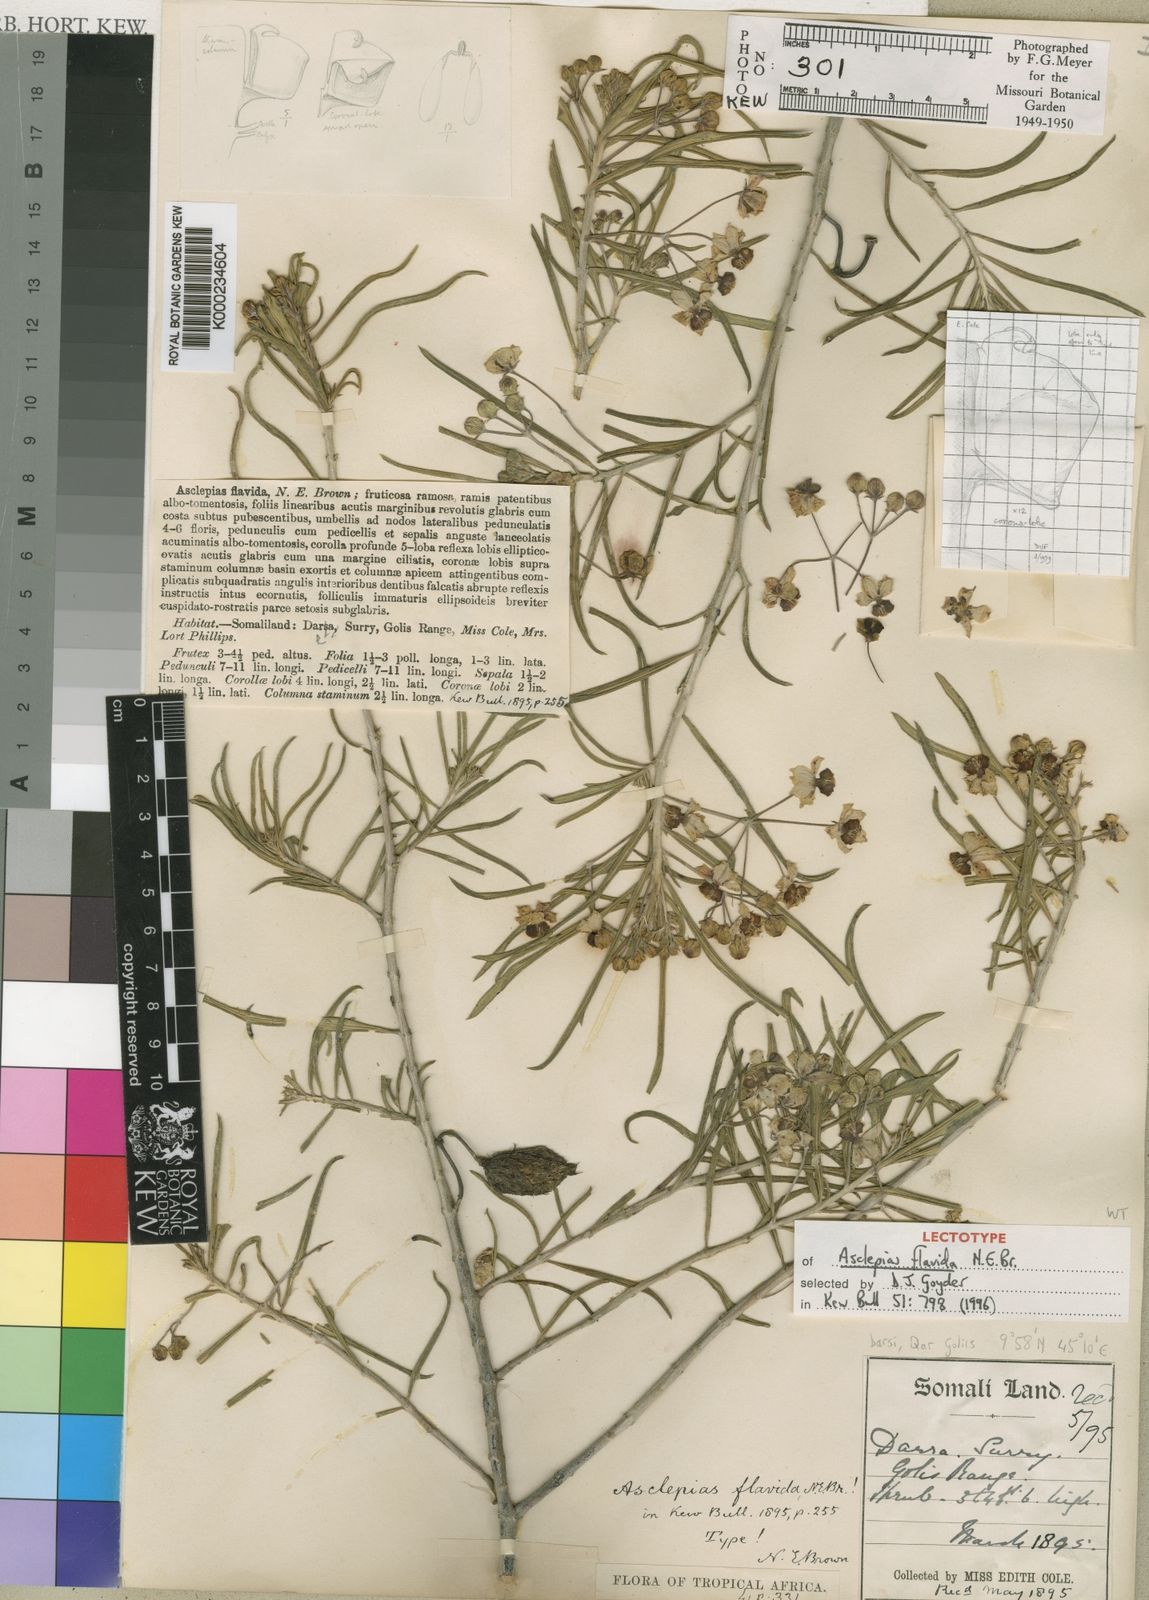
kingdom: Plantae
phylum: Tracheophyta
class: Magnoliopsida
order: Gentianales
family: Apocynaceae
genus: Gomphocarpus
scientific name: Gomphocarpus fruticosus
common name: Milkweed
